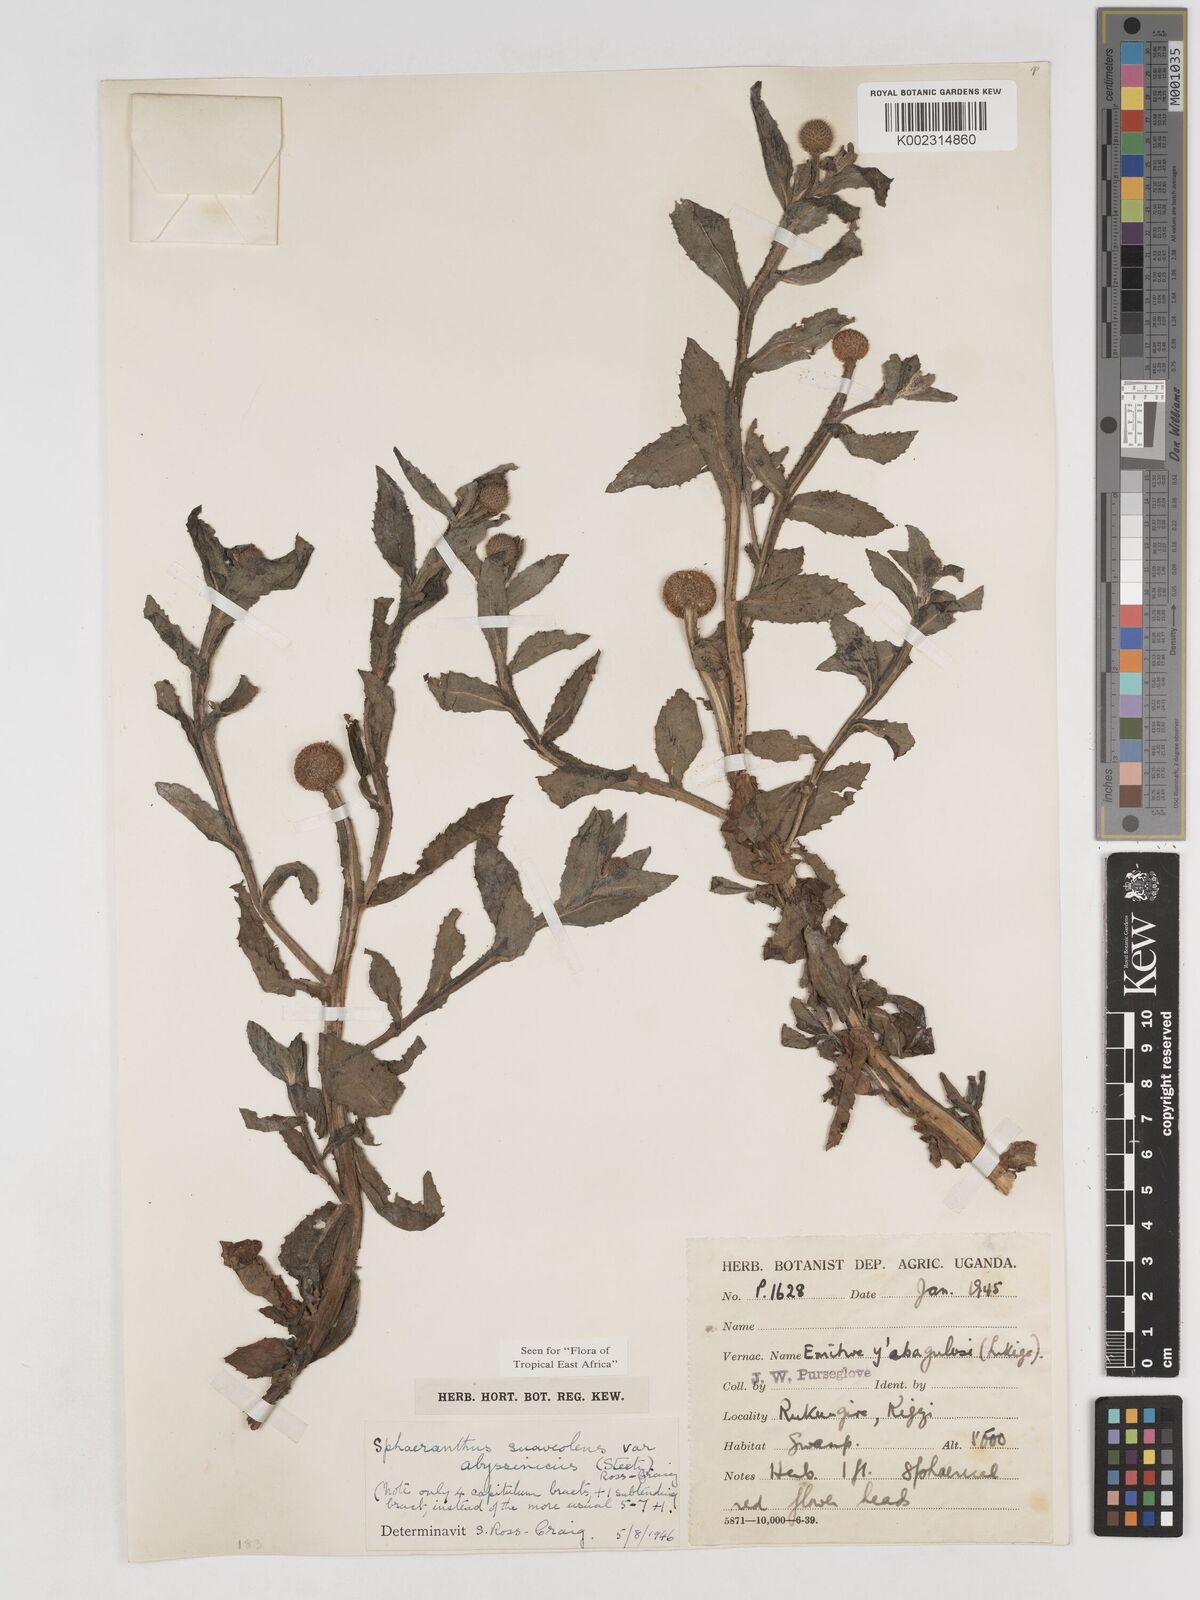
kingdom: Plantae
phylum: Tracheophyta
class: Magnoliopsida
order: Asterales
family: Asteraceae
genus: Sphaeranthus
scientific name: Sphaeranthus suaveolens
